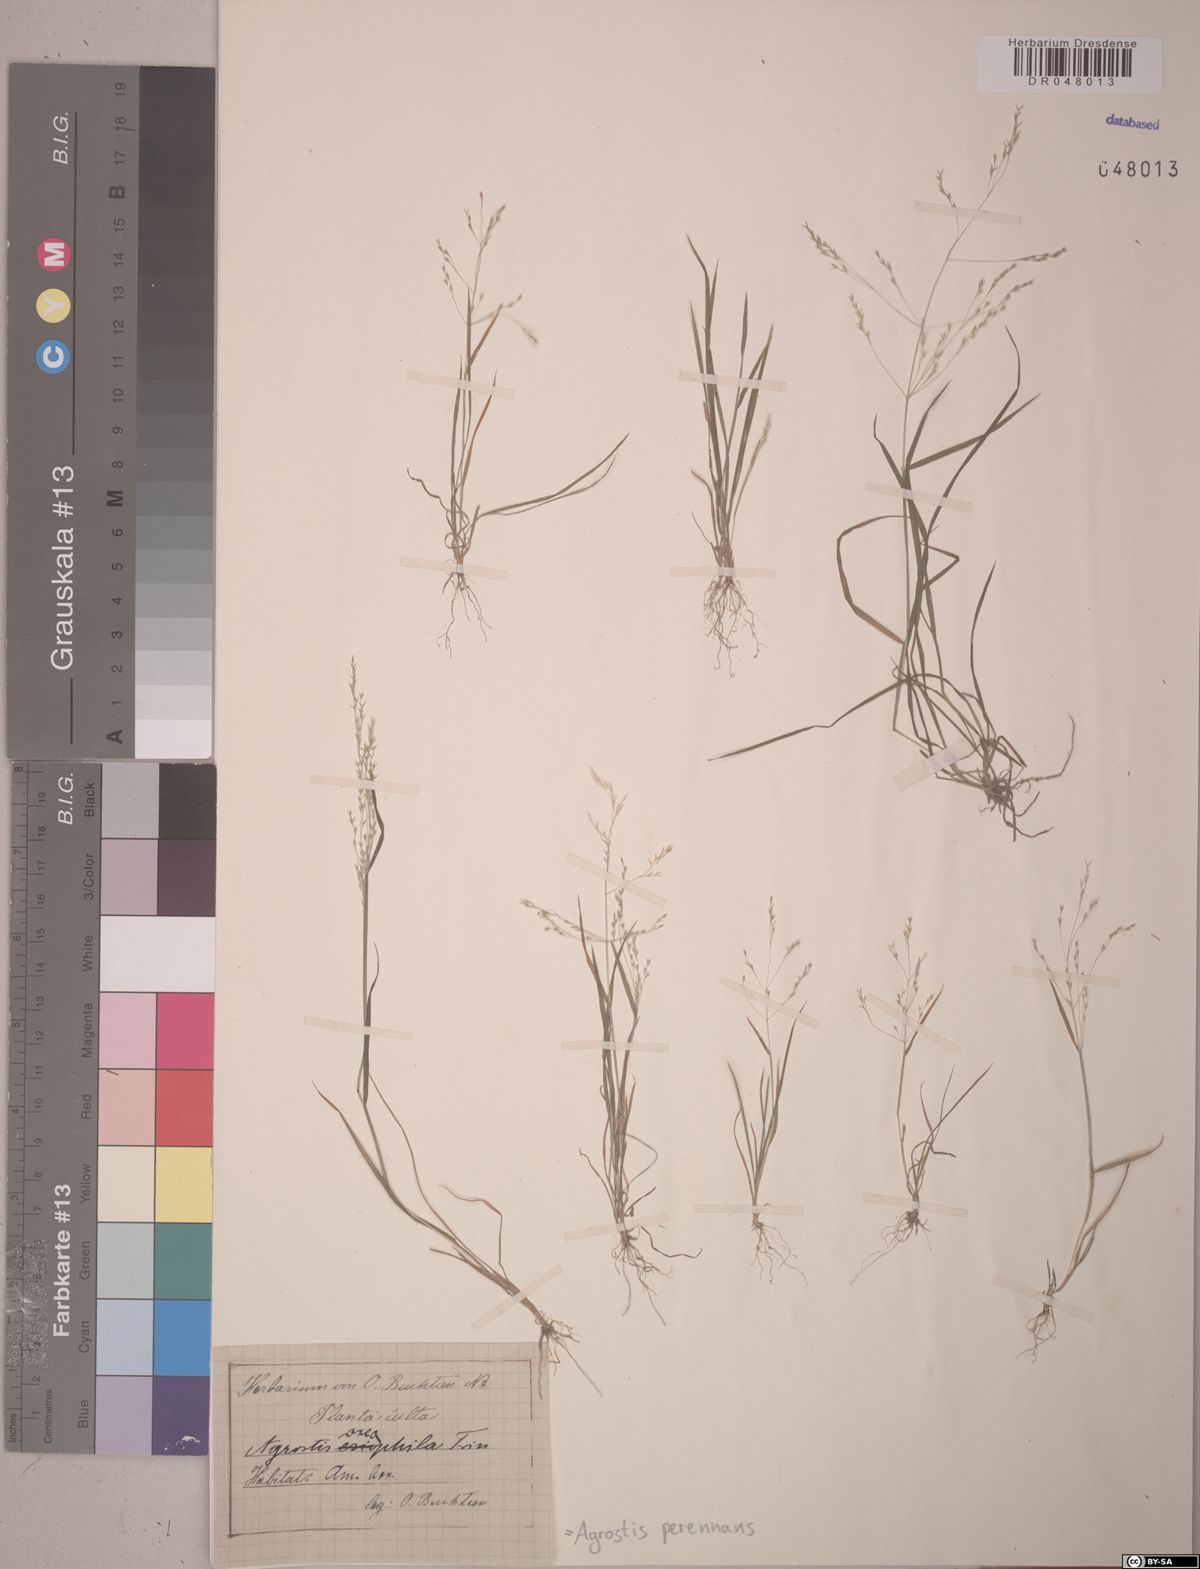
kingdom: Plantae
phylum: Tracheophyta
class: Liliopsida
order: Poales
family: Poaceae
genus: Agrostis
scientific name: Agrostis perennans
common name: Autumn bent
